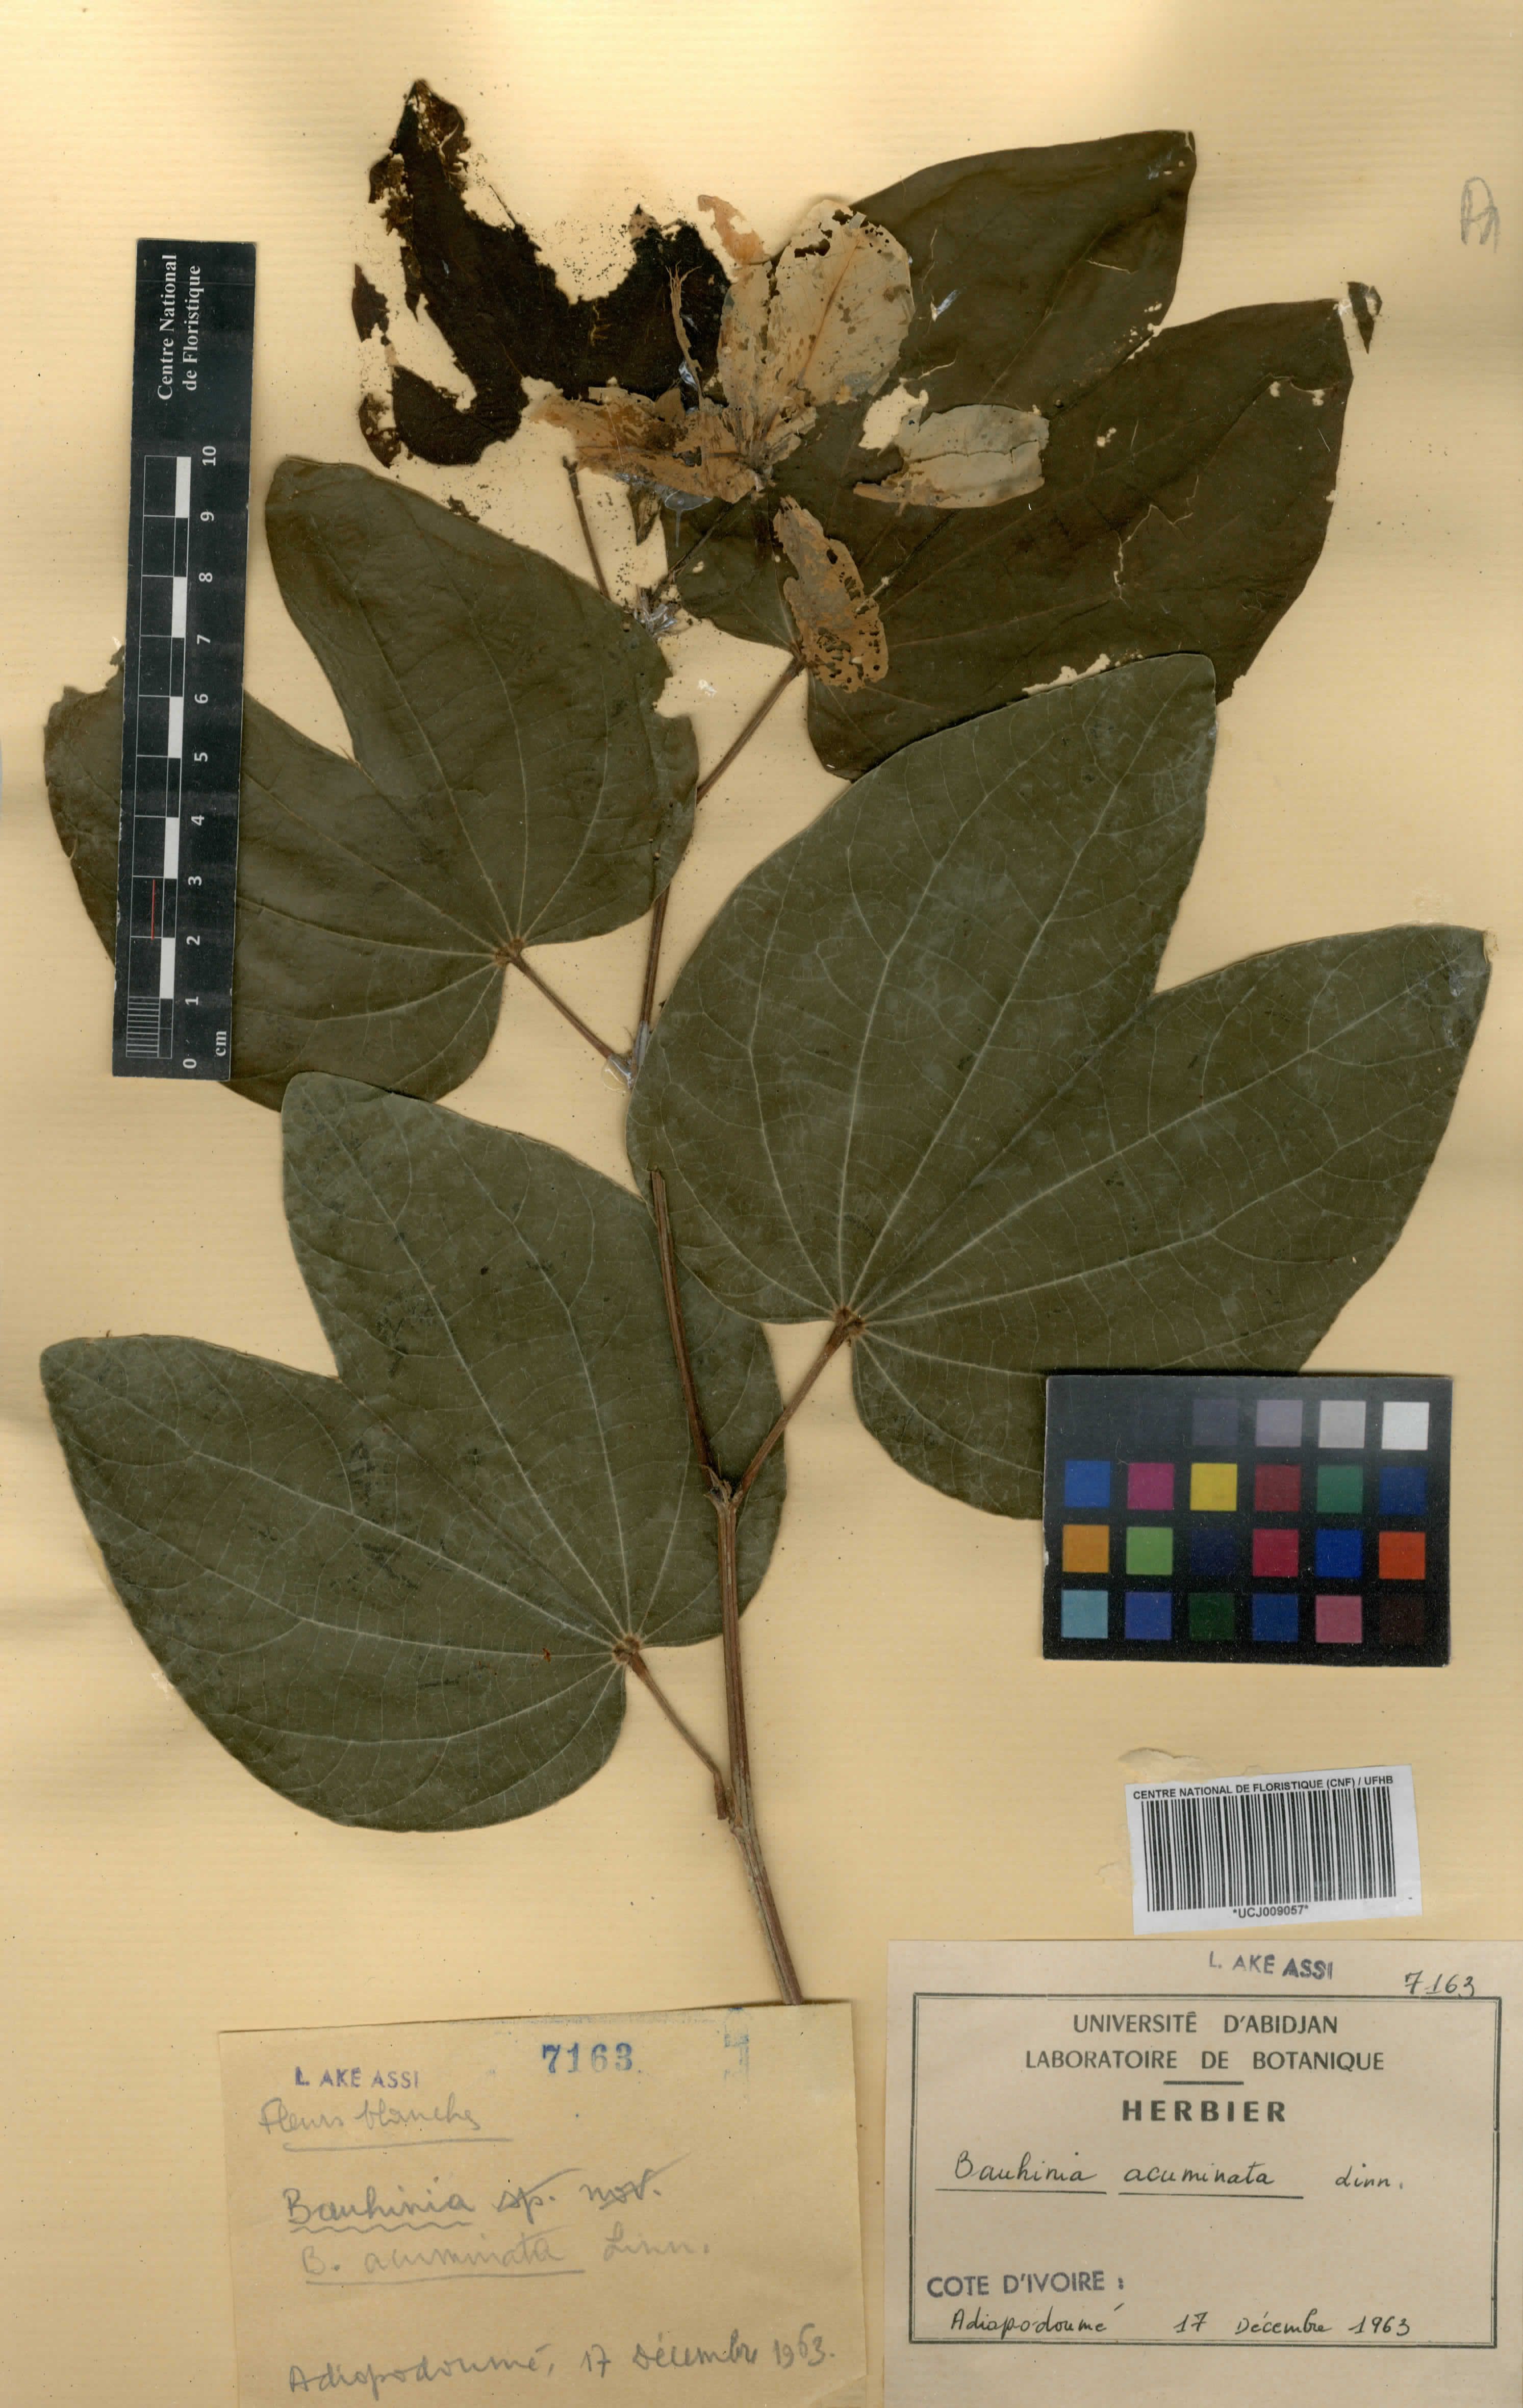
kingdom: Plantae
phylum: Tracheophyta
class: Magnoliopsida
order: Fabales
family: Fabaceae
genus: Bauhinia
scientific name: Bauhinia acuminata
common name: Dwarf white bauhinia
